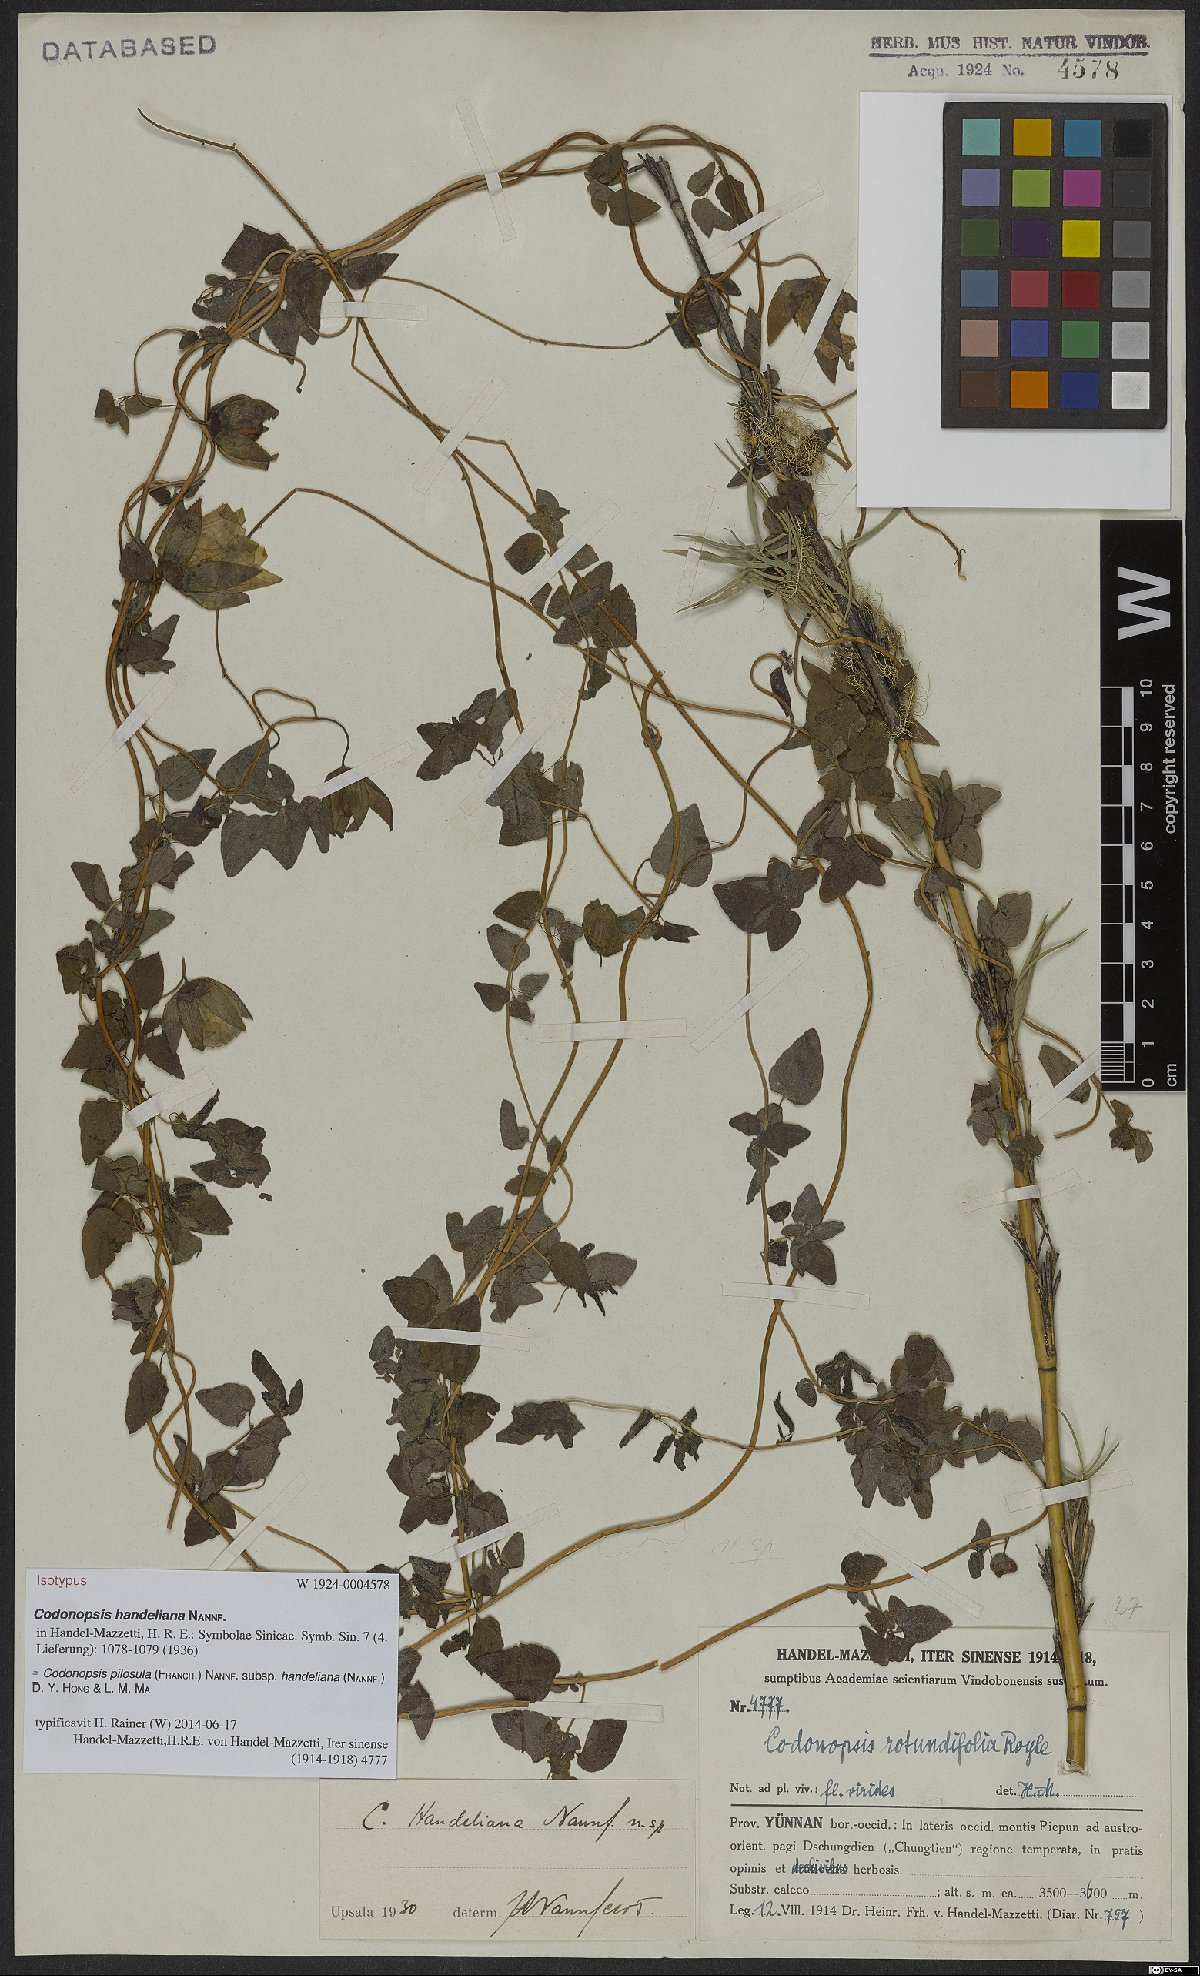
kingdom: Plantae
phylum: Tracheophyta
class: Magnoliopsida
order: Asterales
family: Campanulaceae
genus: Codonopsis
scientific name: Codonopsis pilosula
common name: Bellflower
